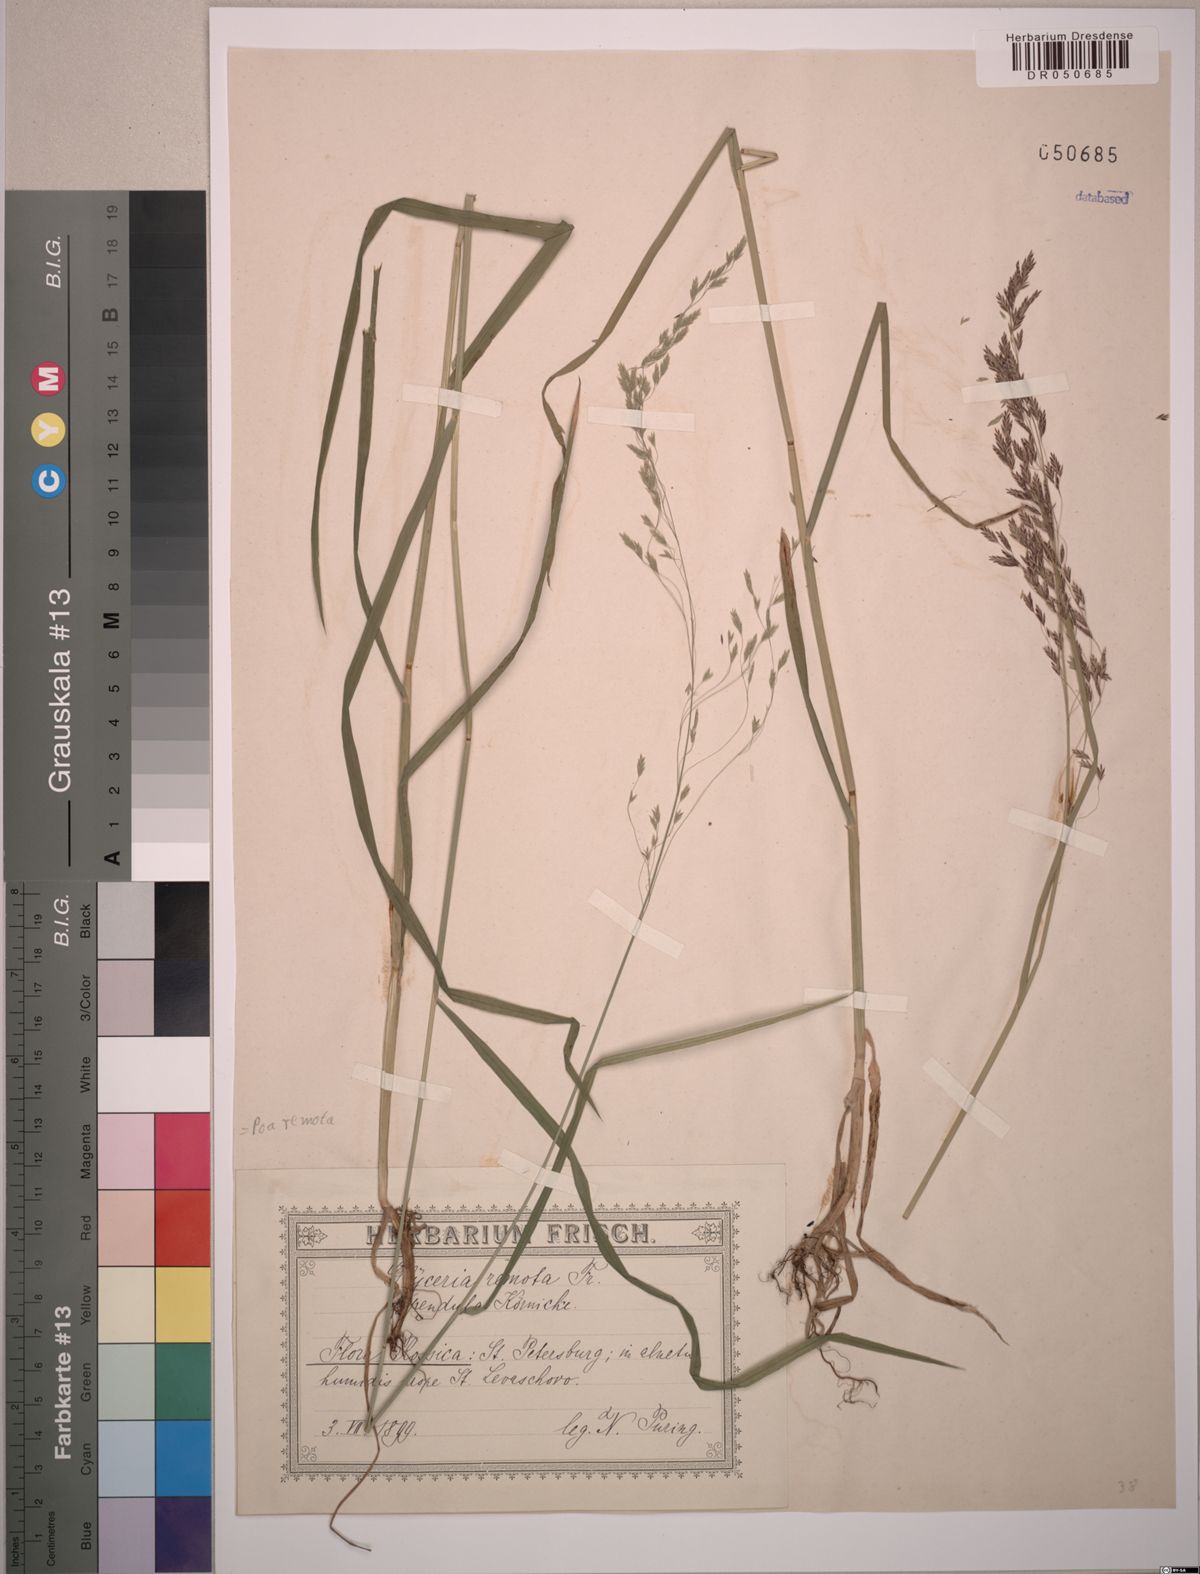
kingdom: Plantae
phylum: Tracheophyta
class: Liliopsida
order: Poales
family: Poaceae
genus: Poa
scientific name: Poa remota
